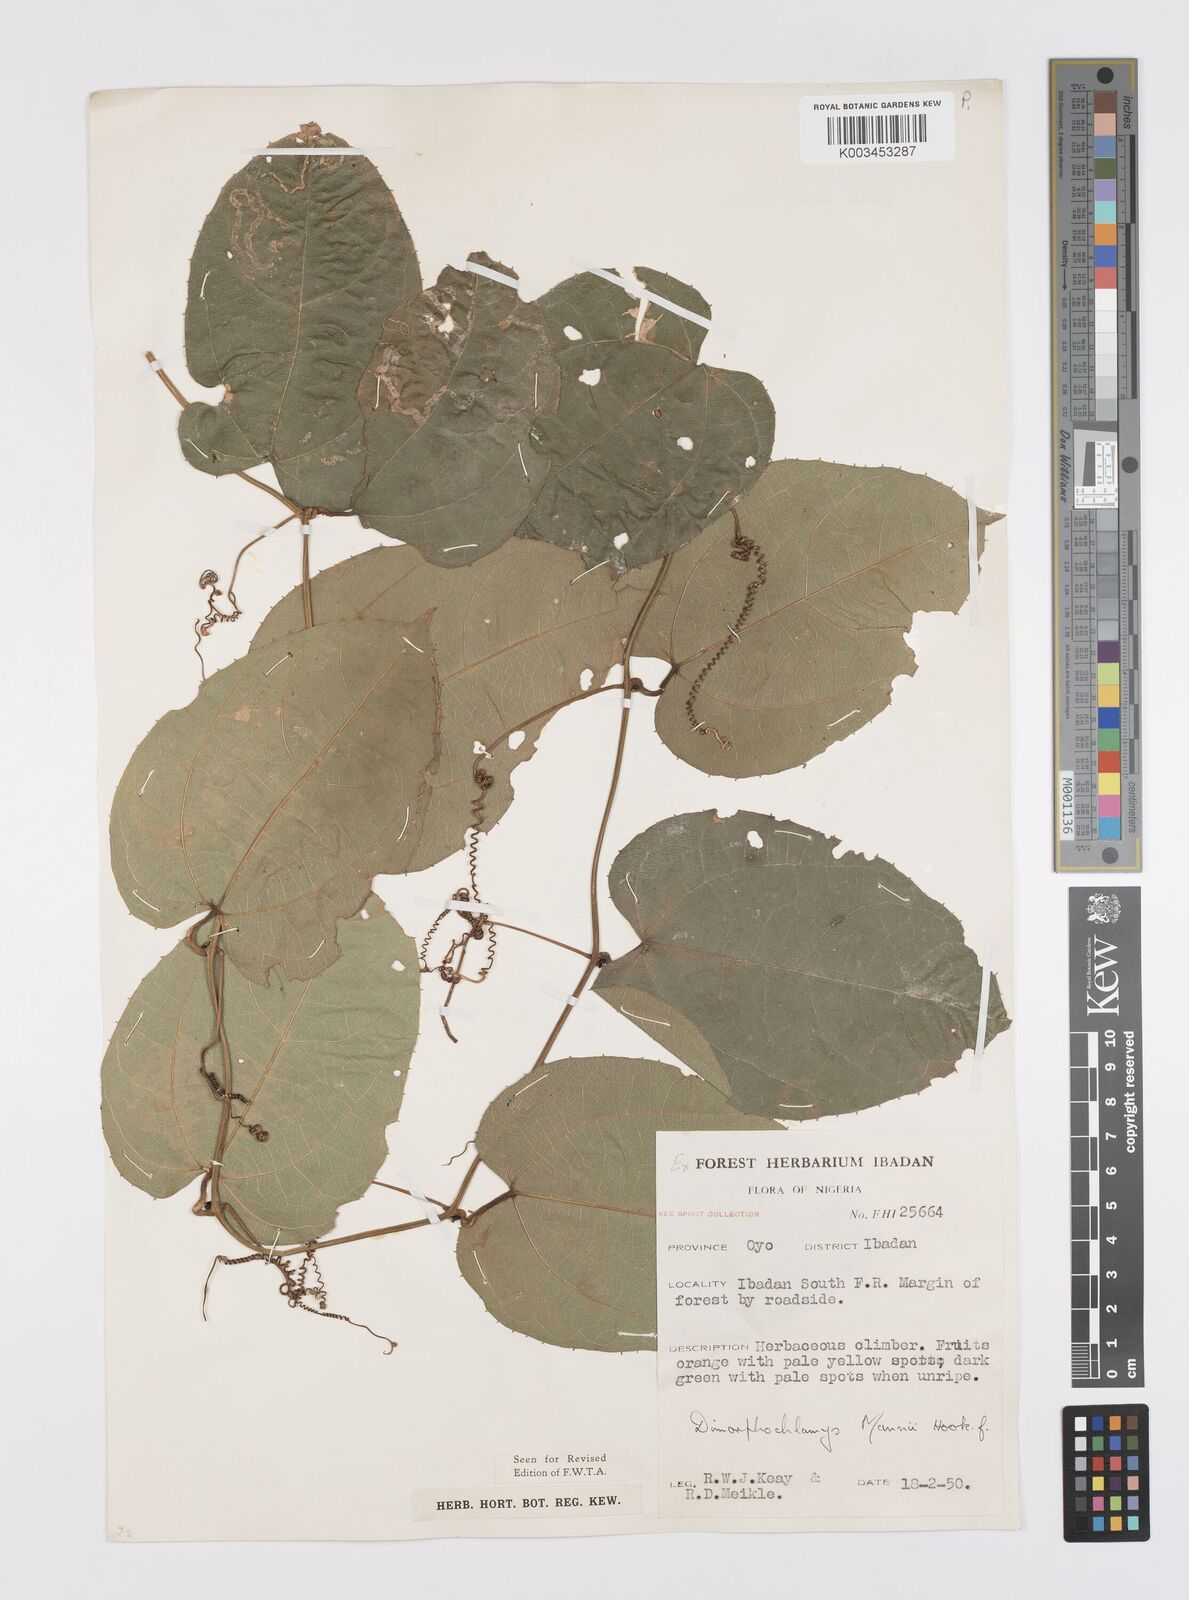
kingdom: Plantae
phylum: Tracheophyta
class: Magnoliopsida
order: Cucurbitales
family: Cucurbitaceae
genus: Momordica
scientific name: Momordica cabrae
